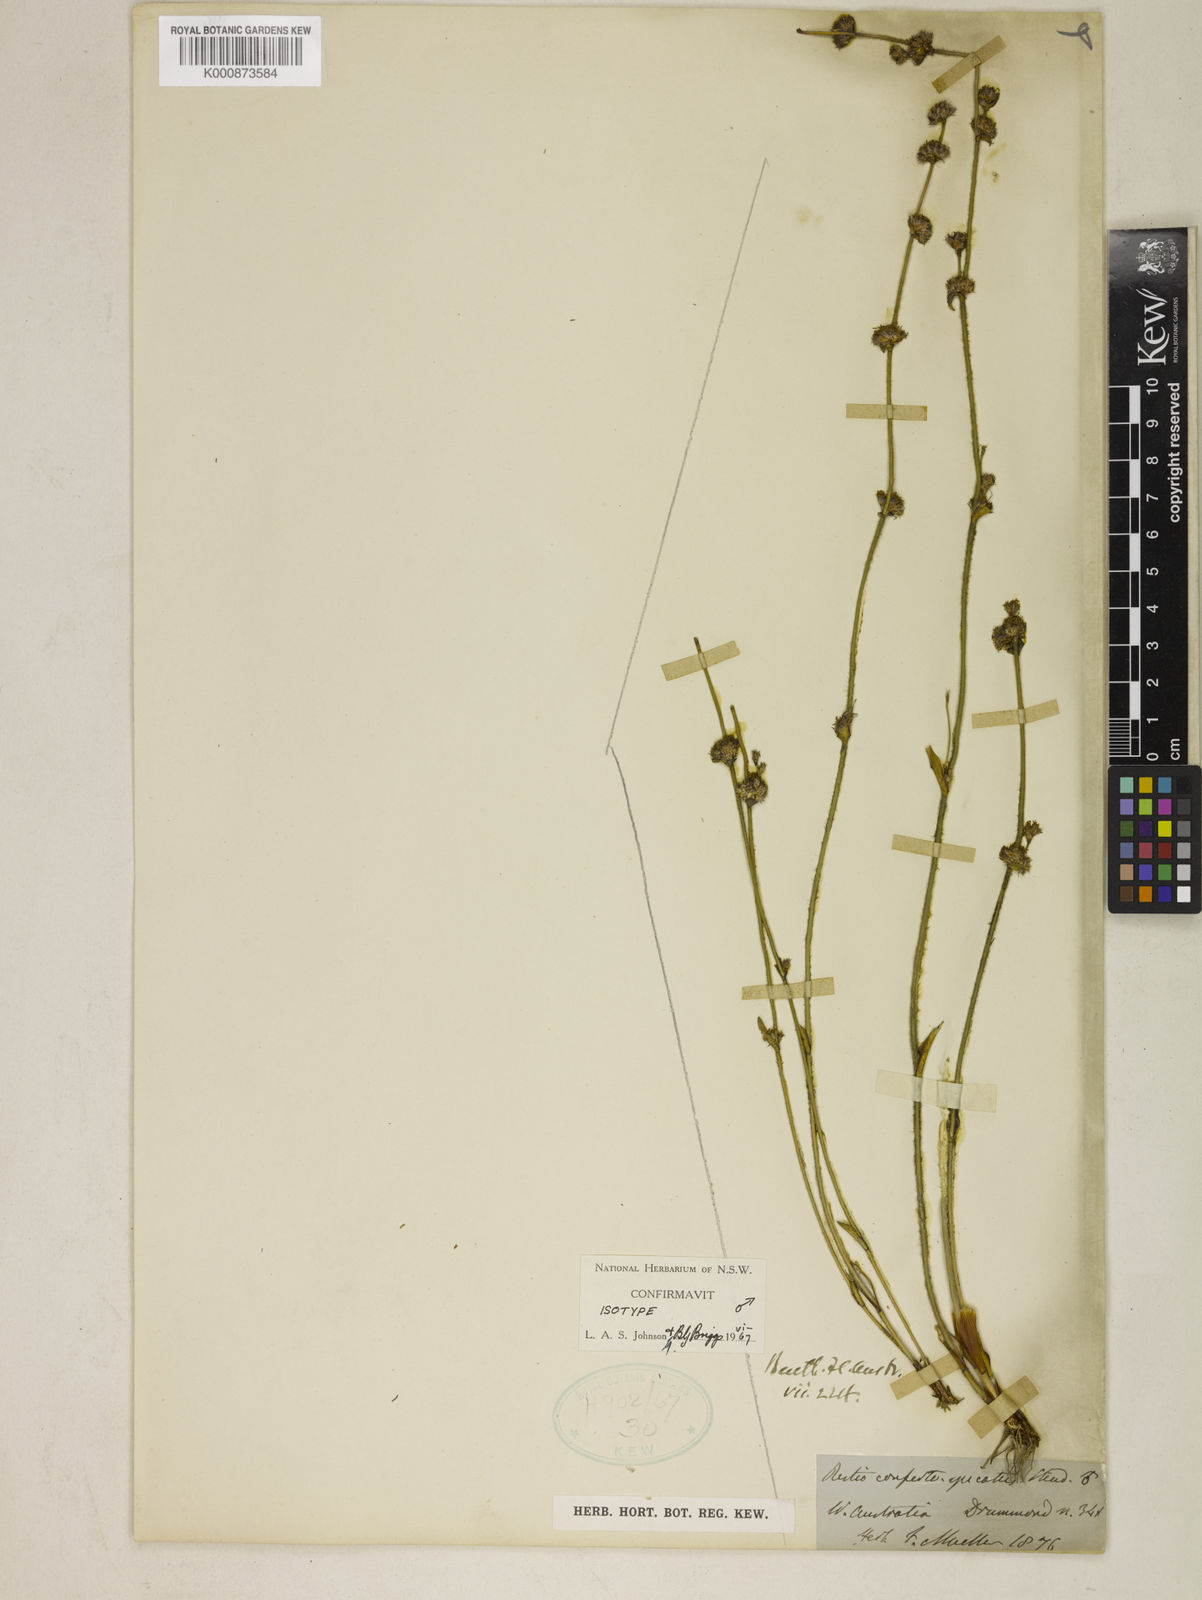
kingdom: Plantae
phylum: Tracheophyta
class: Liliopsida
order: Poales
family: Restionaceae
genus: Desmocladus
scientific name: Desmocladus confertospicatus
